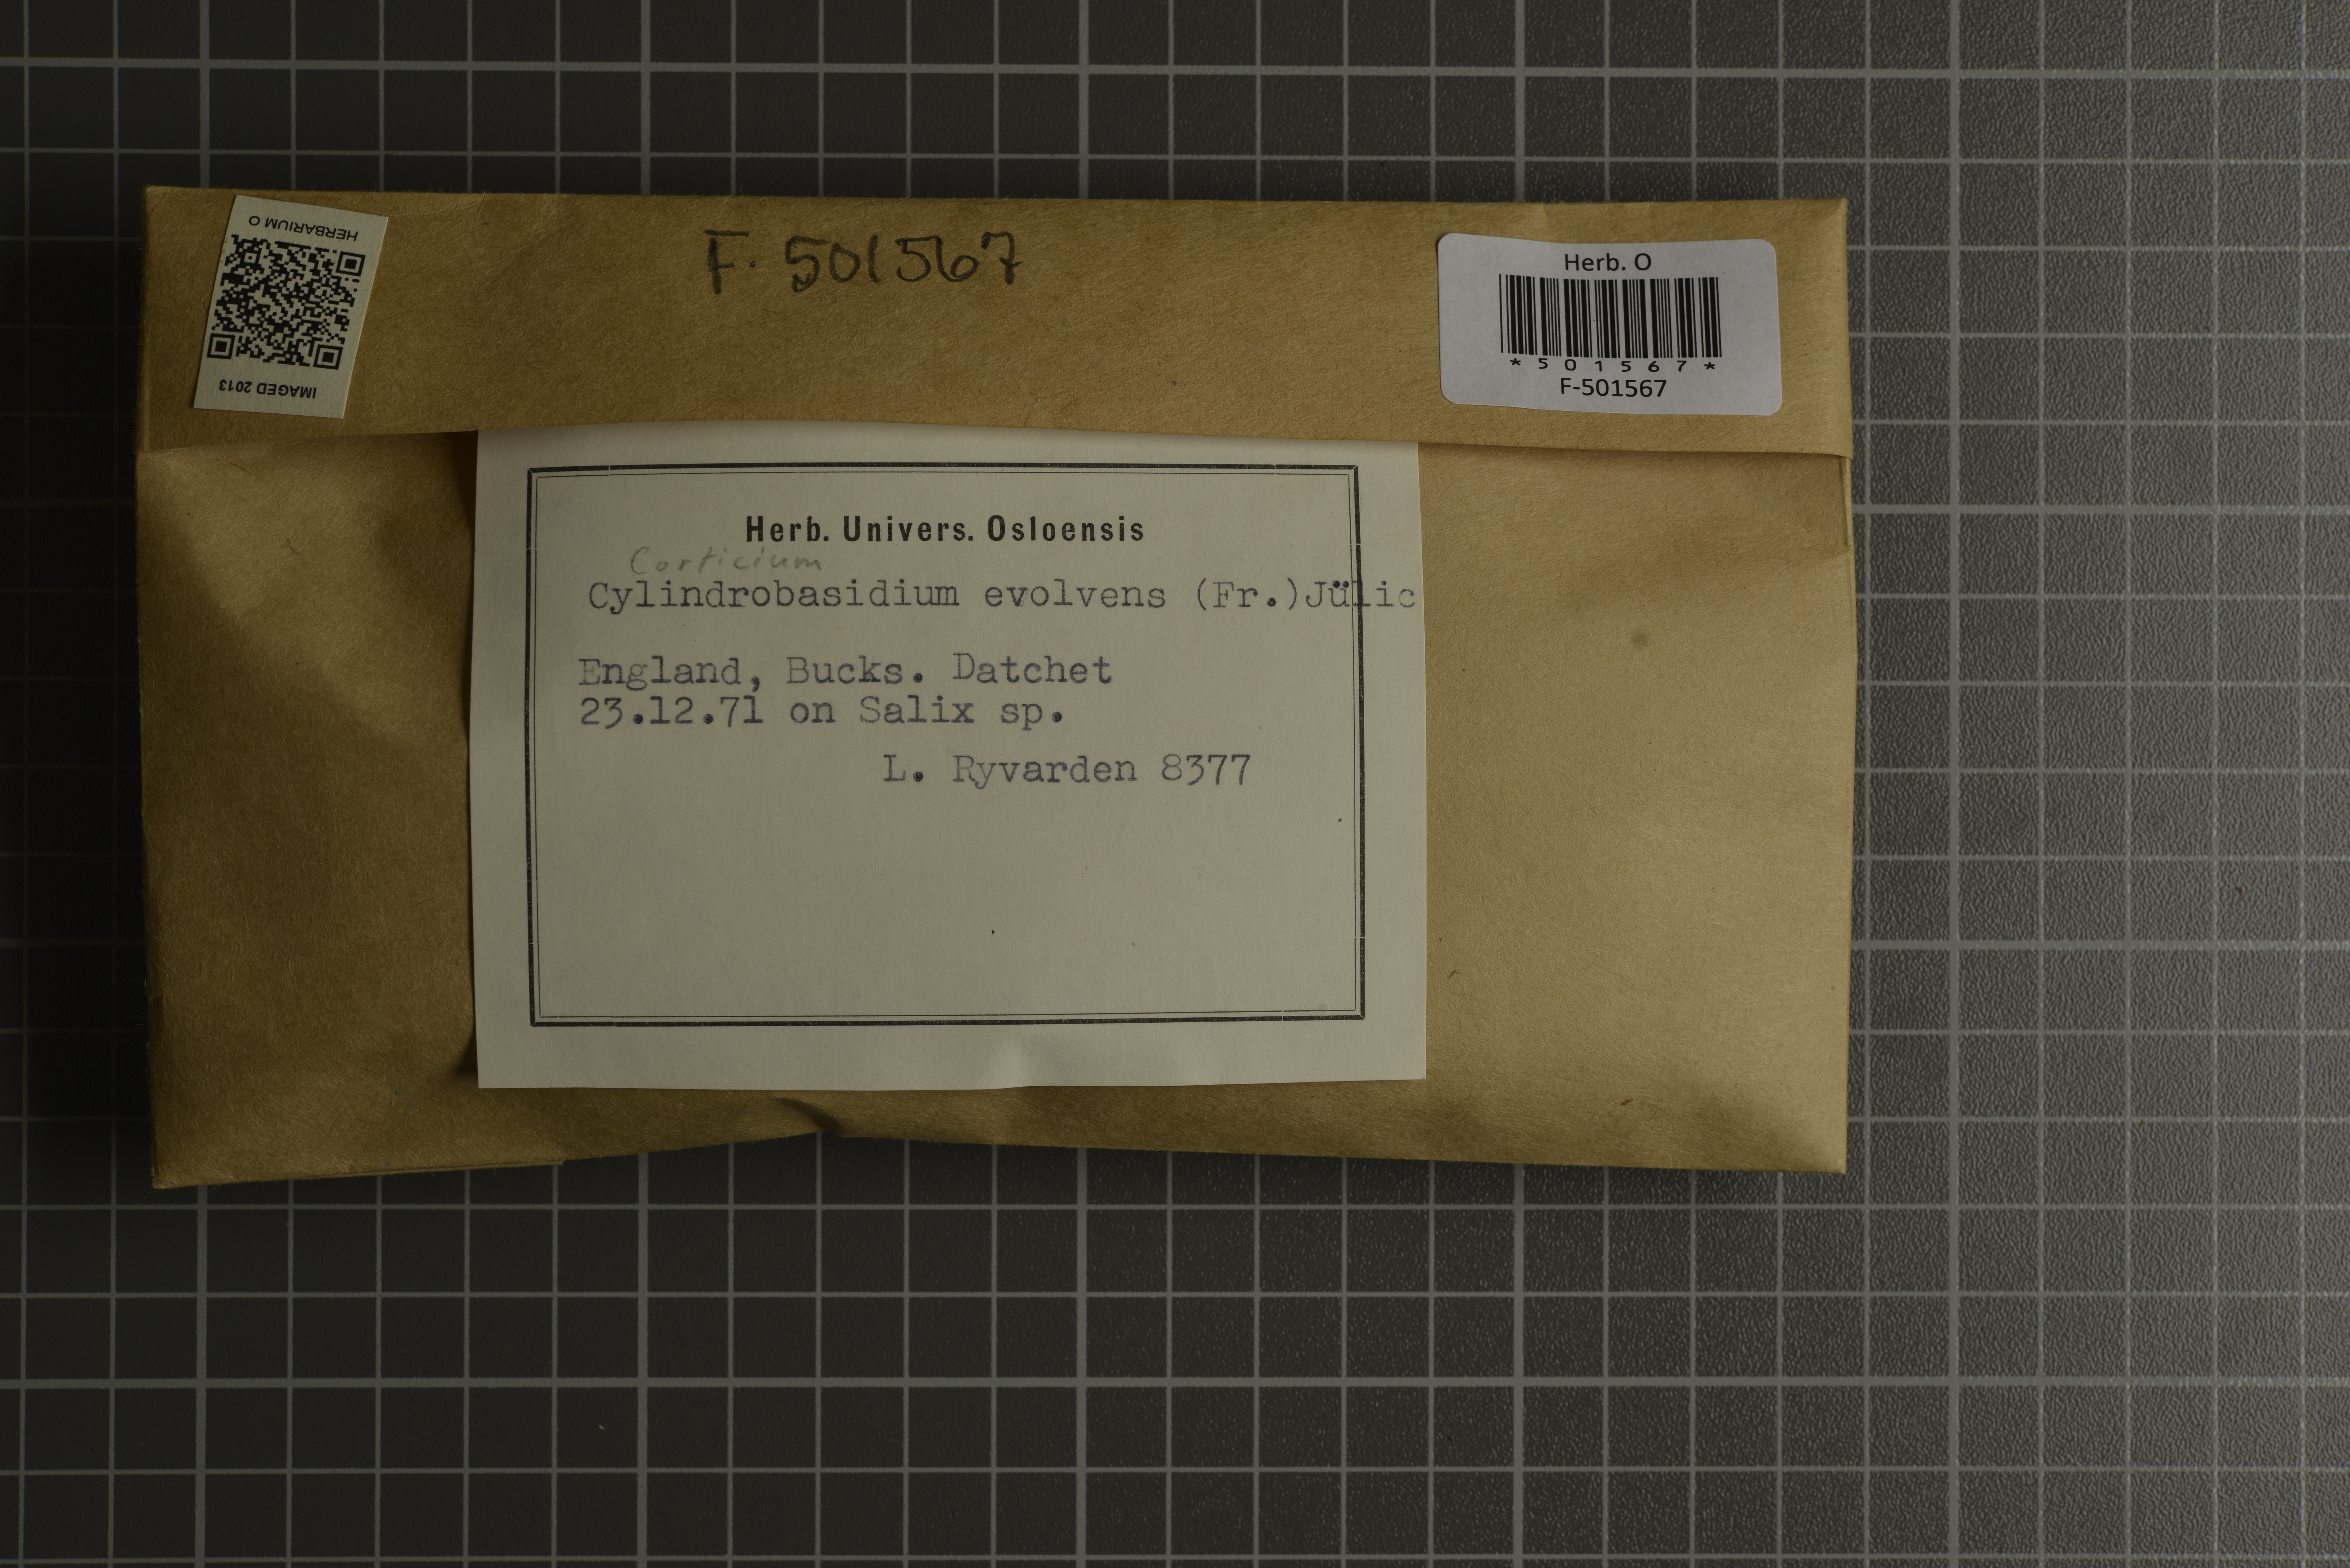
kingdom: Fungi
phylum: Basidiomycota
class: Agaricomycetes
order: Agaricales
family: Physalacriaceae
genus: Cylindrobasidium
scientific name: Cylindrobasidium evolvens
